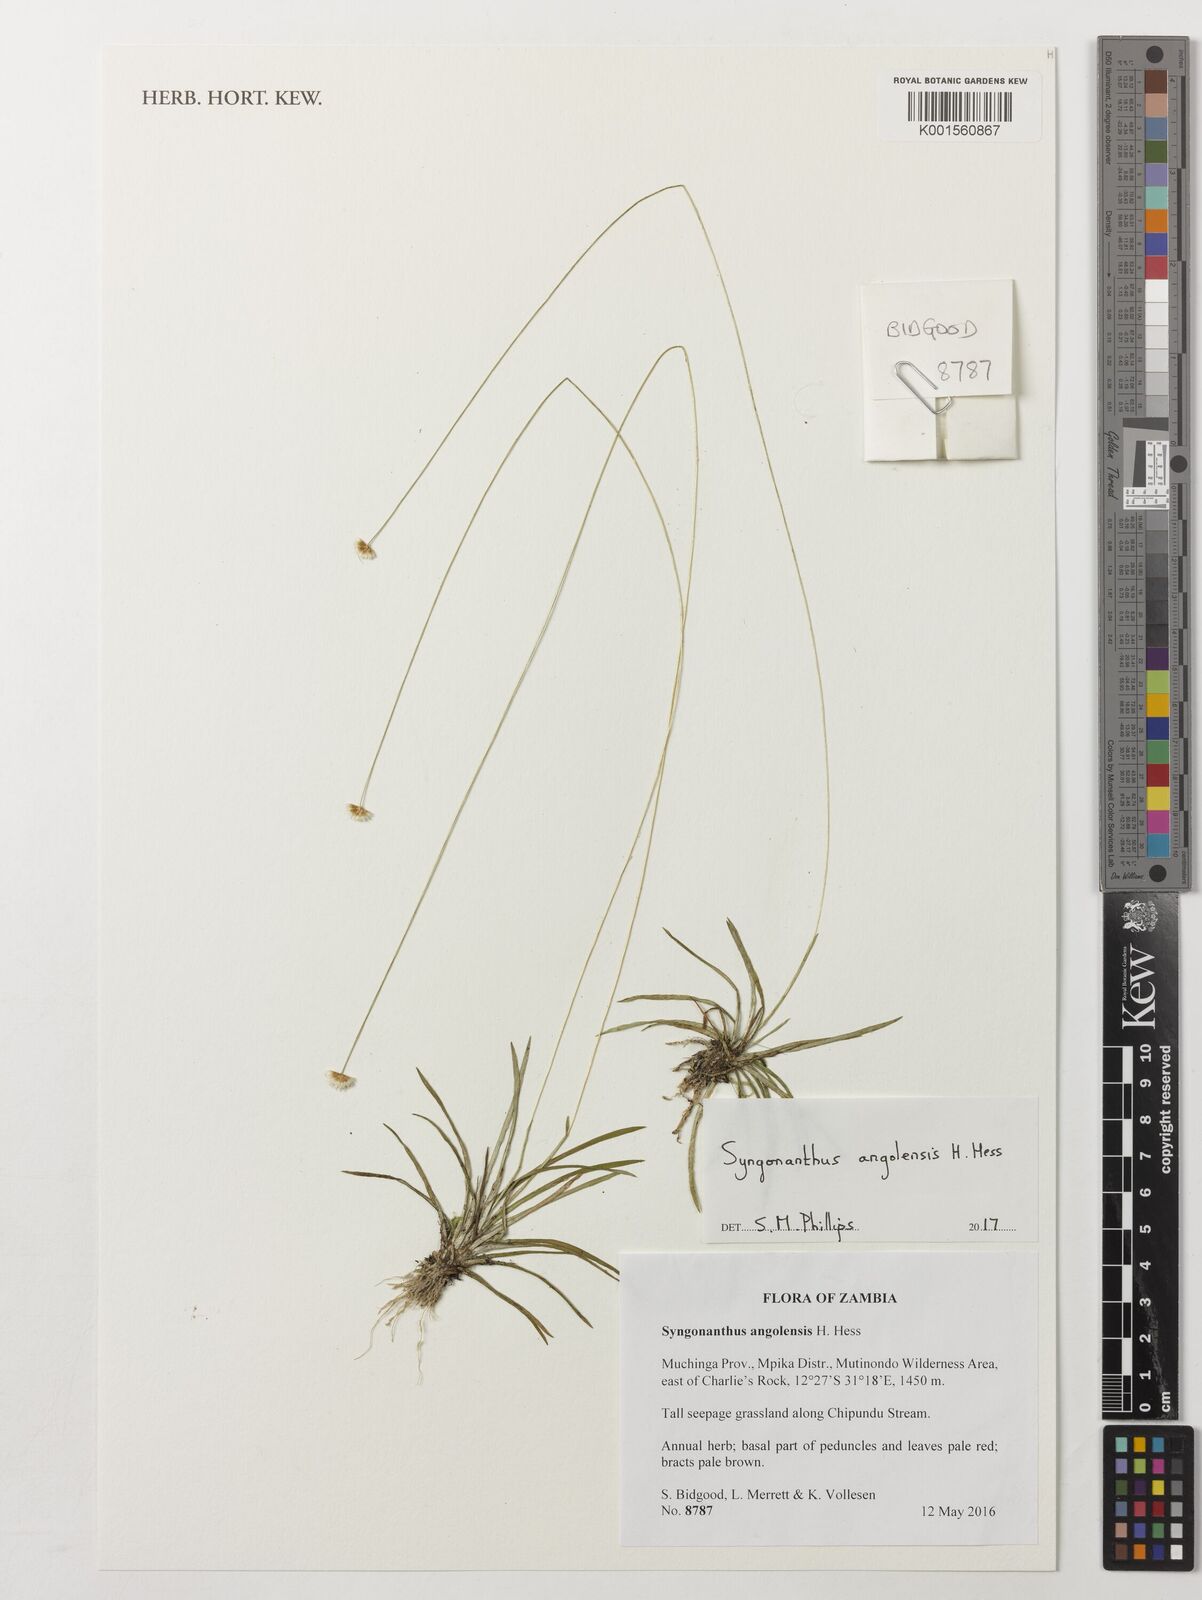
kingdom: Plantae
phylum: Tracheophyta
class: Liliopsida
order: Poales
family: Eriocaulaceae
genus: Syngonanthus
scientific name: Syngonanthus angolensis
